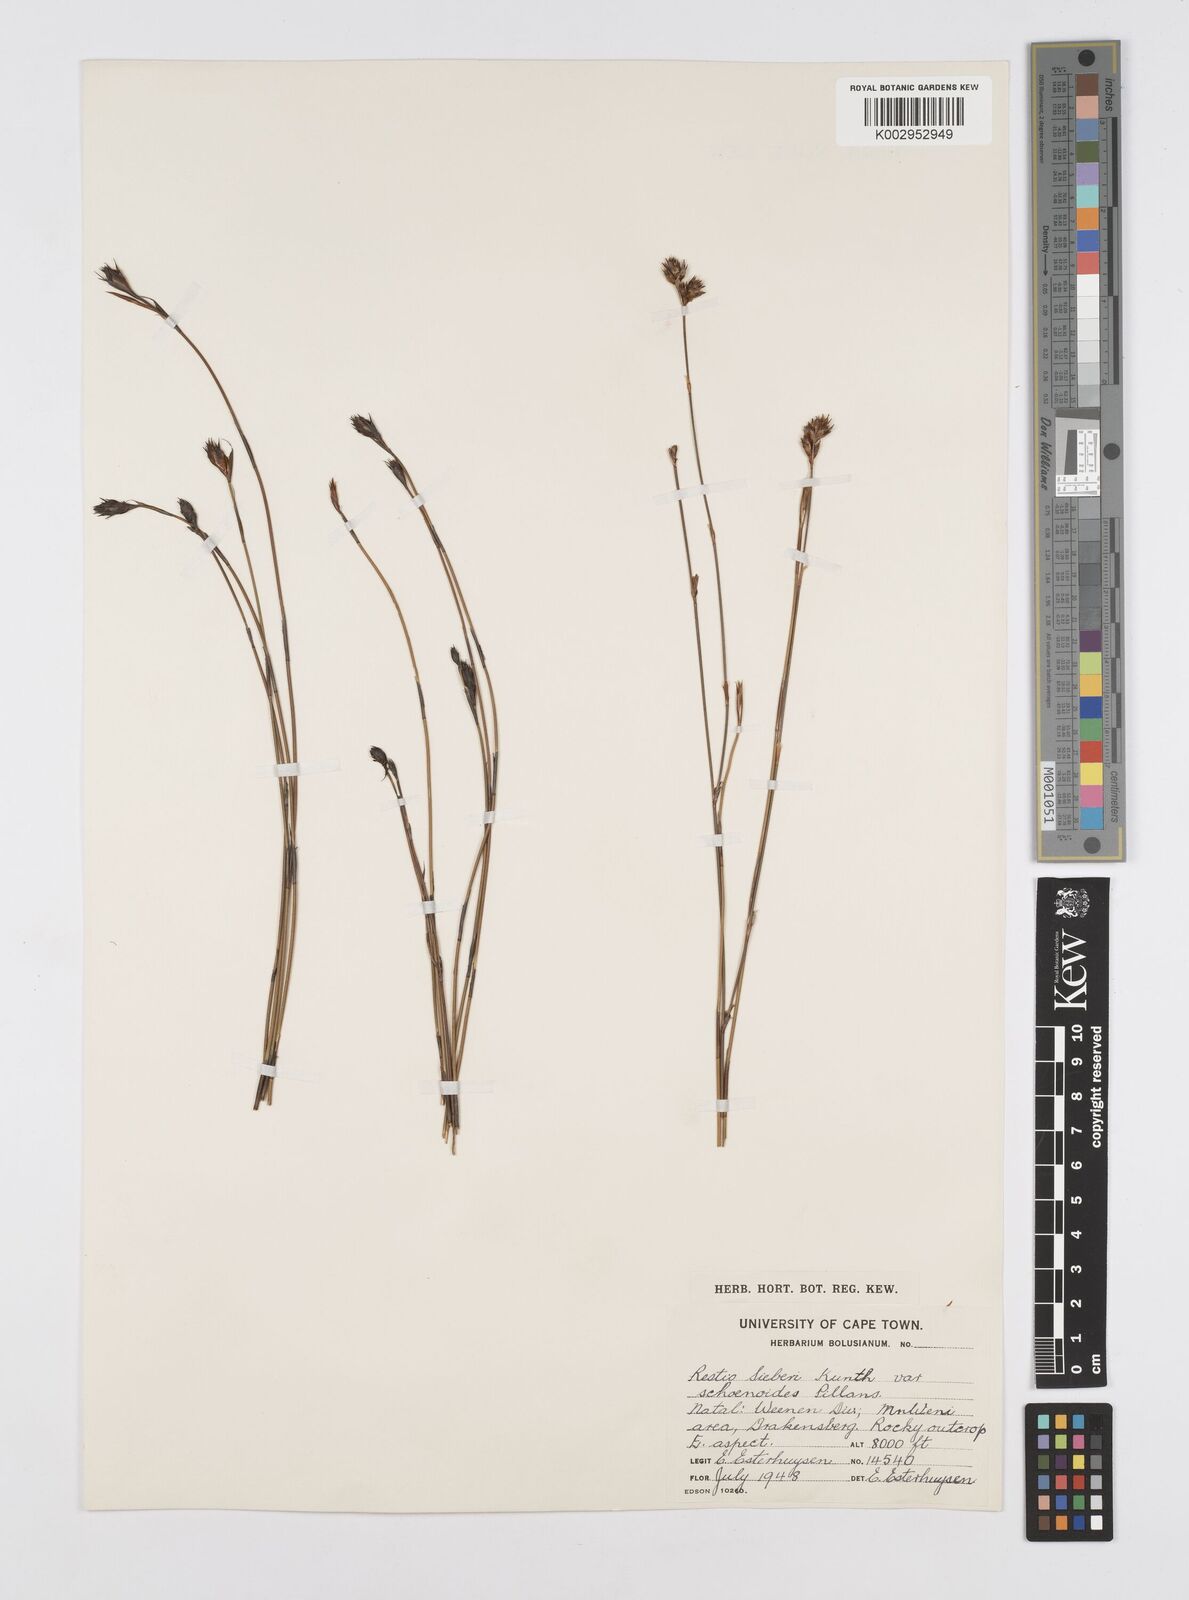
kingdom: Plantae
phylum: Tracheophyta
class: Liliopsida
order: Poales
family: Restionaceae
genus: Restio
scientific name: Restio schoenoides
